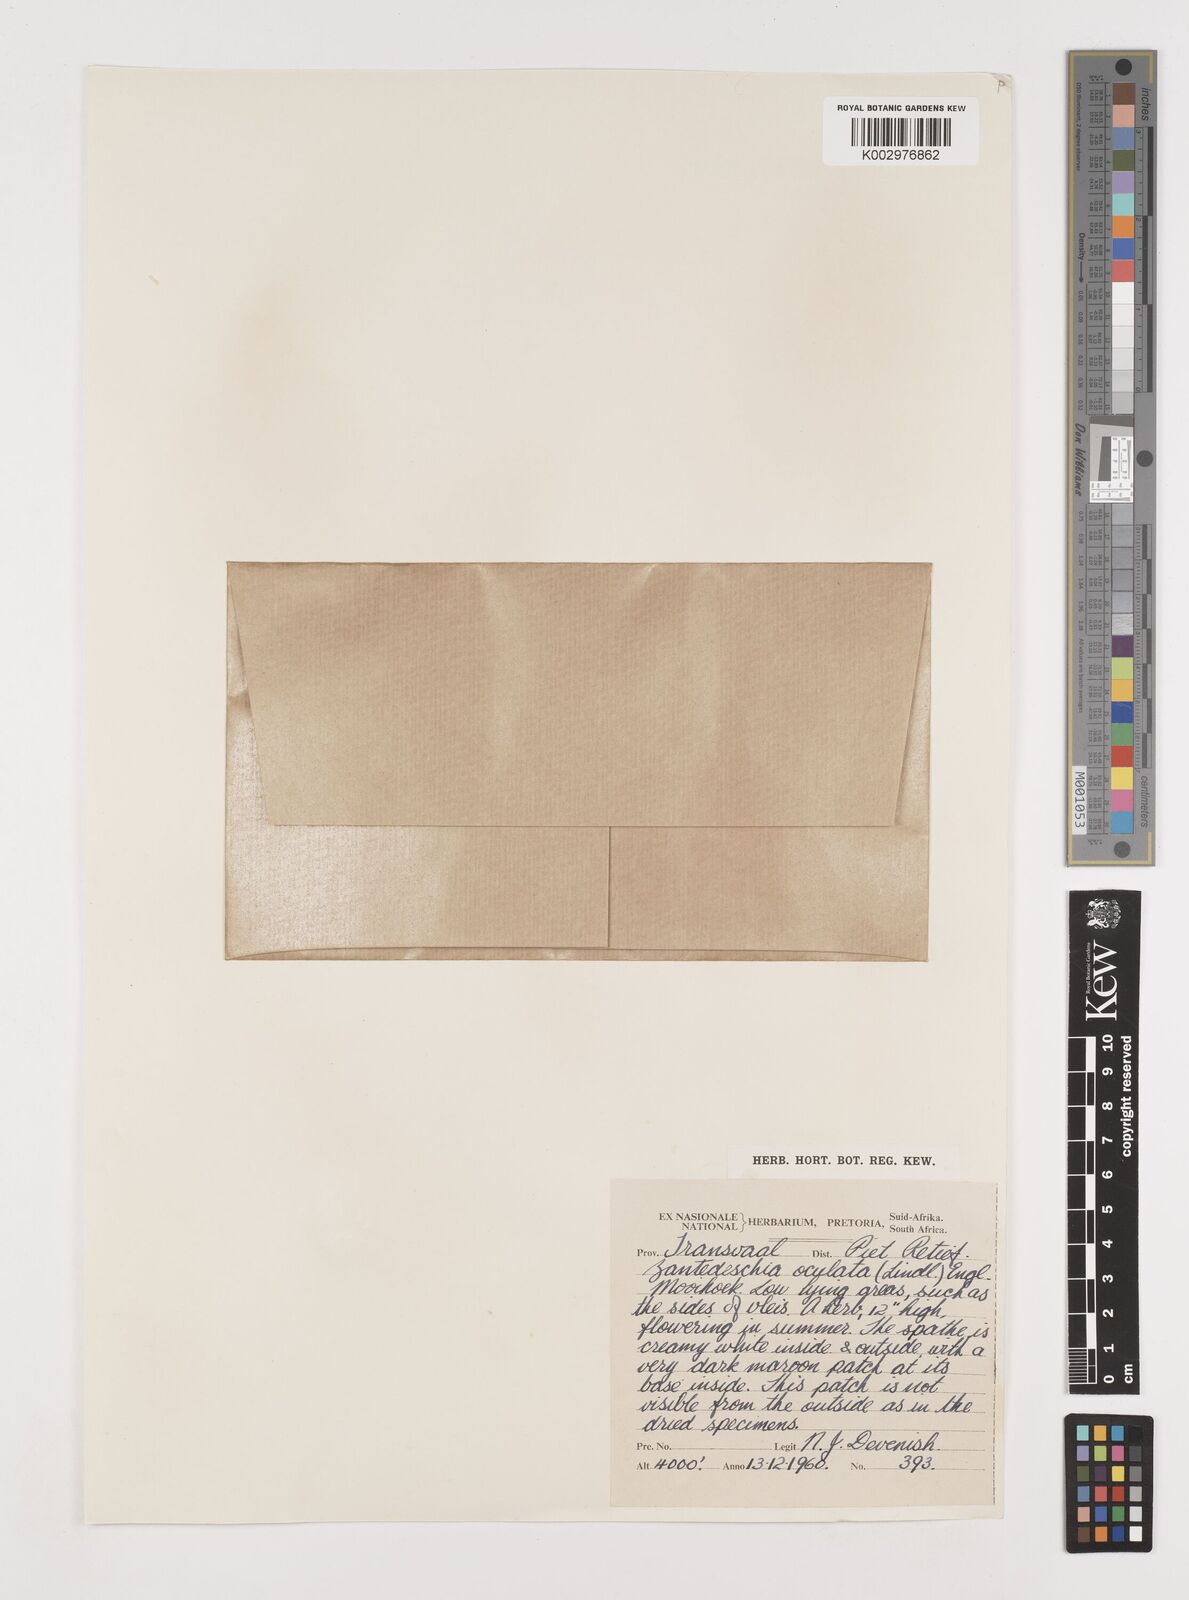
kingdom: Plantae
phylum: Tracheophyta
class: Liliopsida
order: Alismatales
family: Araceae
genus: Zantedeschia
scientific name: Zantedeschia albomaculata
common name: Spotted calla lily
